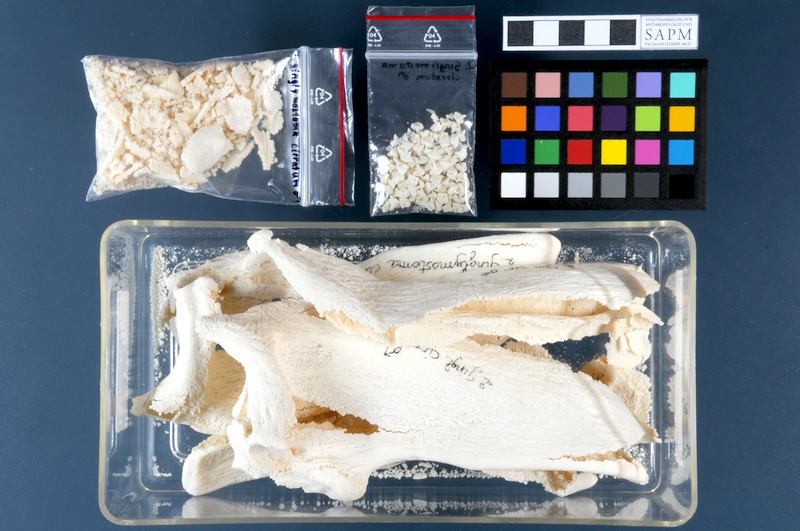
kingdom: Animalia
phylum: Chordata
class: Elasmobranchii
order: Orectolobiformes
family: Ginglymostomatidae
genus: Ginglymostoma
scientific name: Ginglymostoma cirratum
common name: Nurse shark
